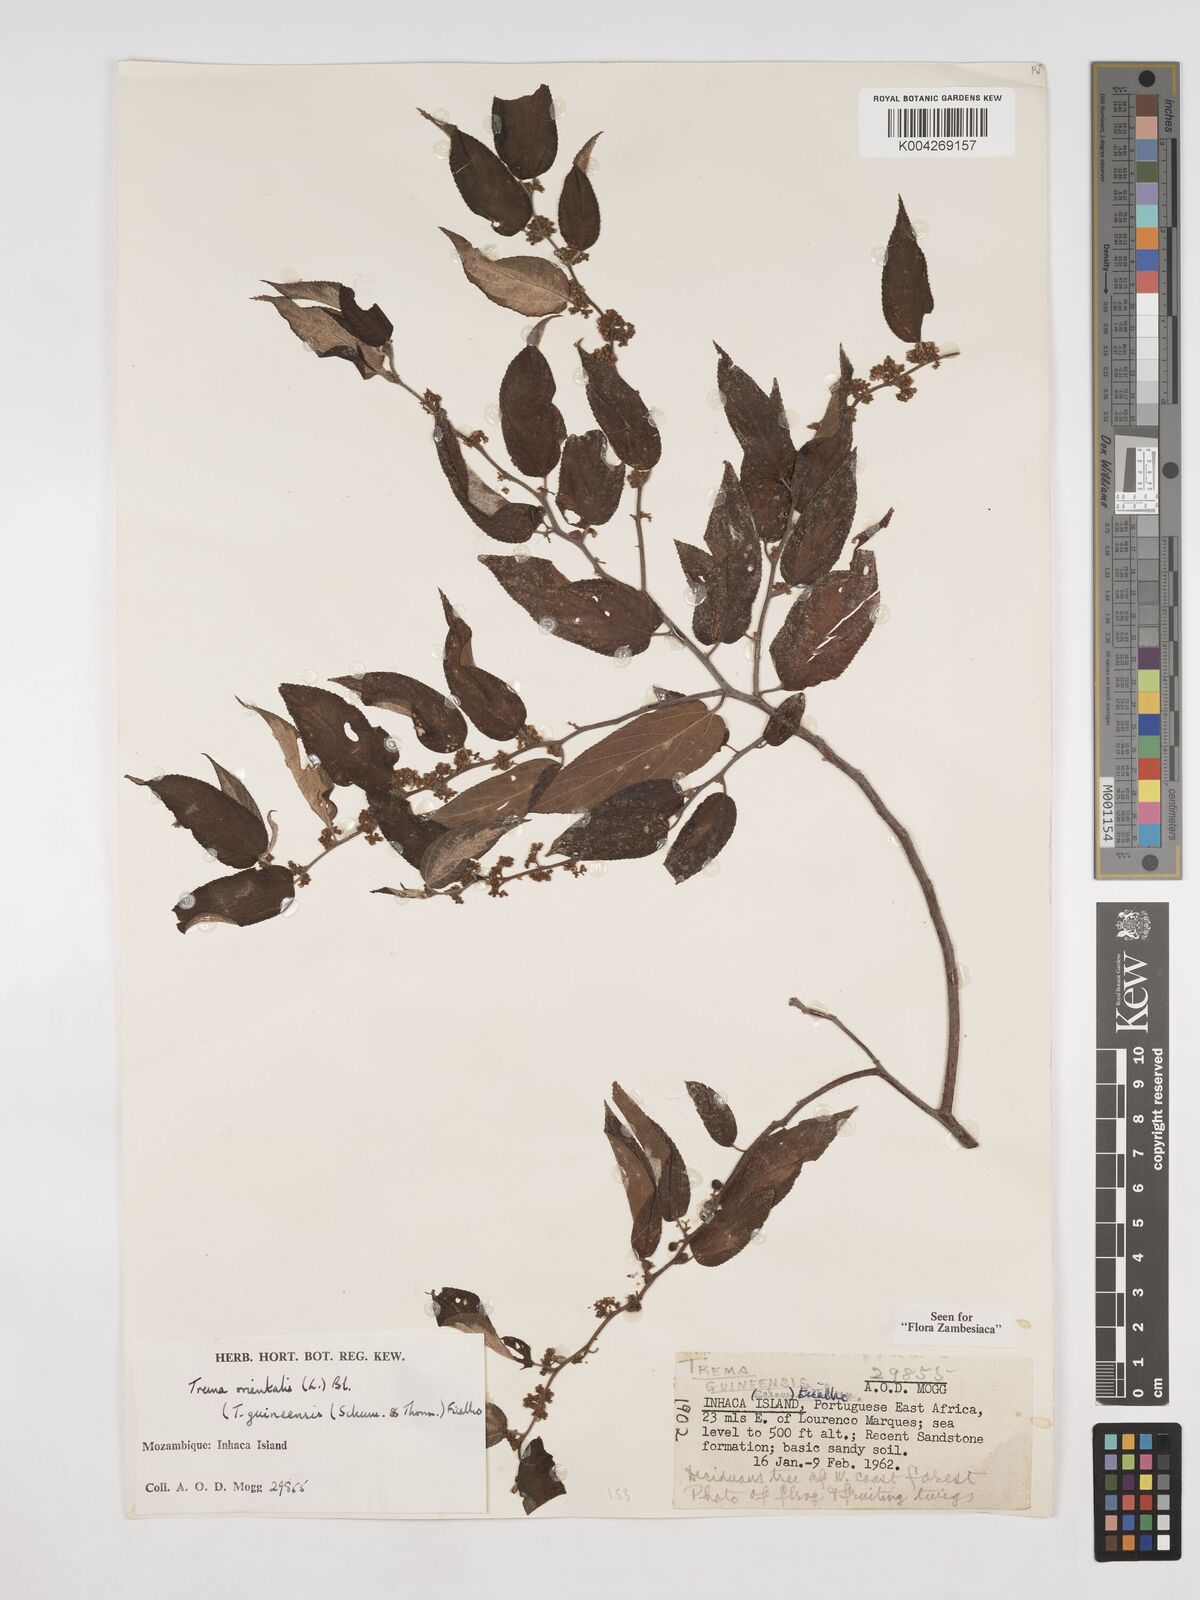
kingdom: Plantae
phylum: Tracheophyta
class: Magnoliopsida
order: Rosales
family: Cannabaceae
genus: Trema
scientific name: Trema orientale
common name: Indian charcoal tree
